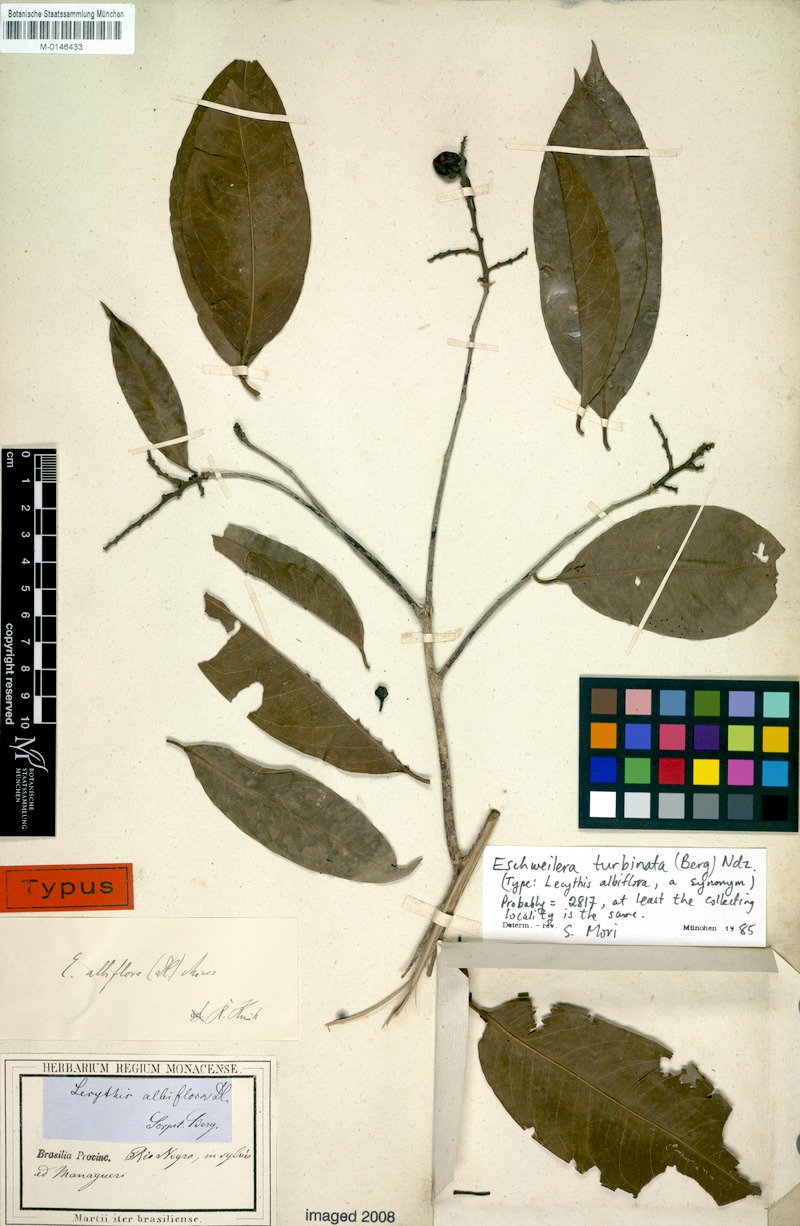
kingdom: Plantae
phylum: Tracheophyta
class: Magnoliopsida
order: Ericales
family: Lecythidaceae
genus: Eschweilera
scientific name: Eschweilera albiflora
